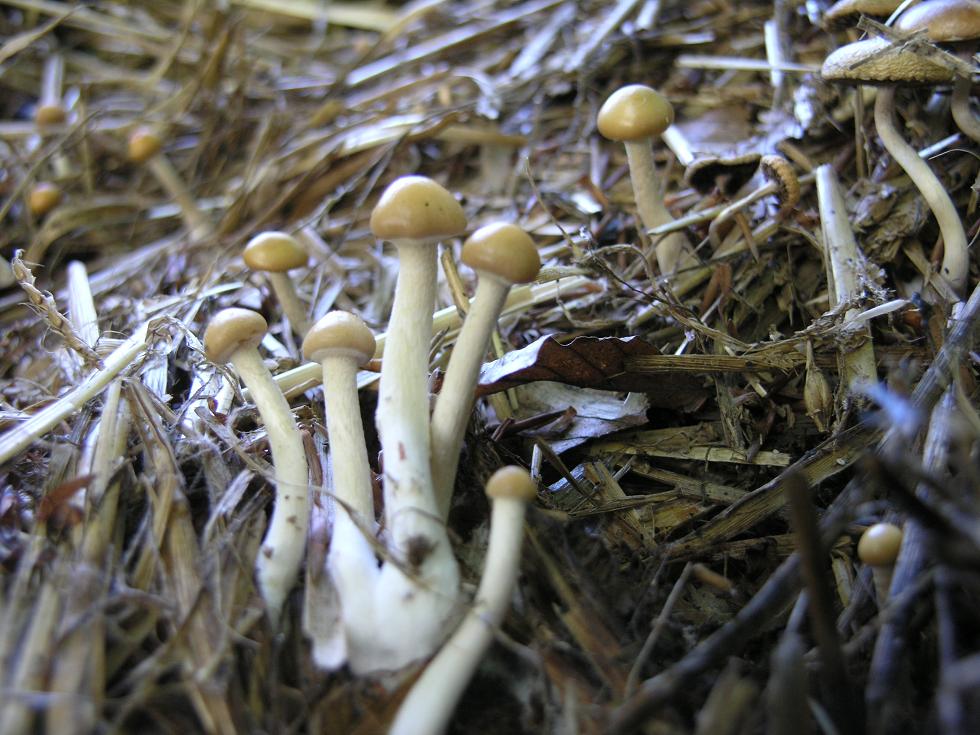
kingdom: Fungi
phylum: Basidiomycota
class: Agaricomycetes
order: Agaricales
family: Strophariaceae
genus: Deconica
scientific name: Deconica merdaria
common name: møg-stråhat
